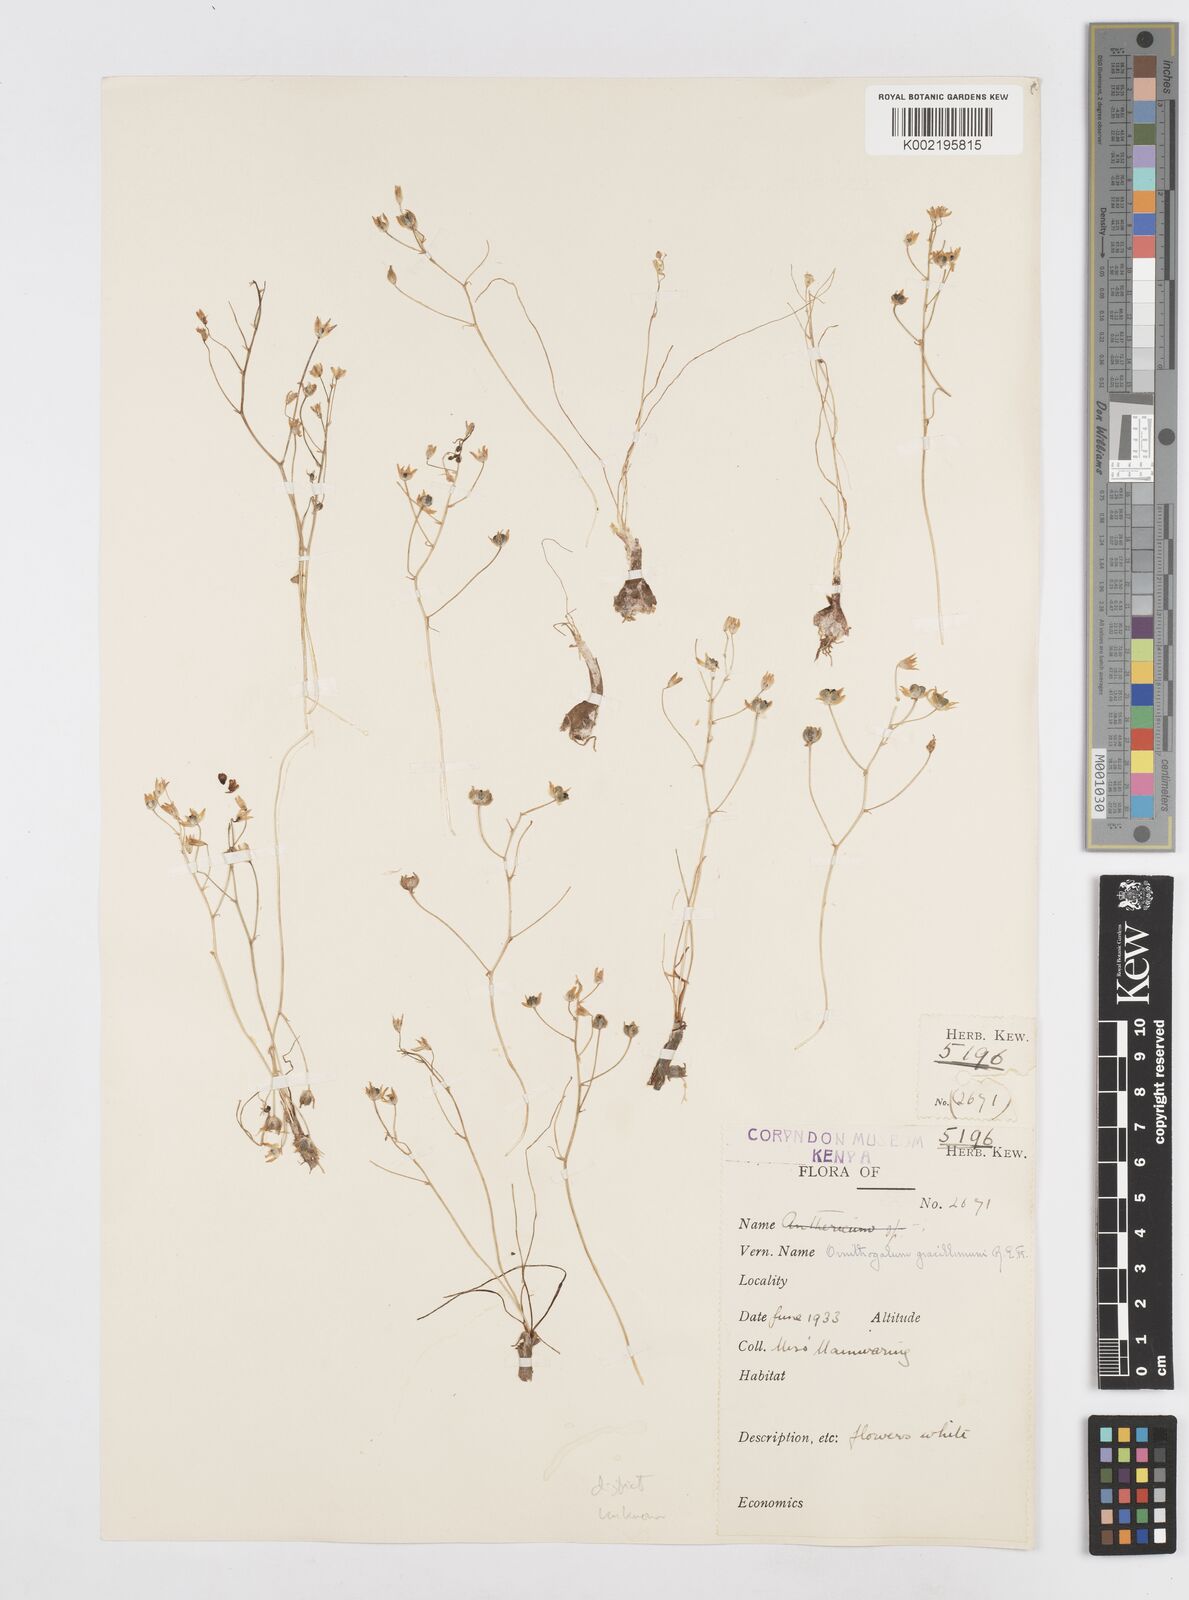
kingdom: Plantae
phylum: Tracheophyta
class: Liliopsida
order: Asparagales
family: Asparagaceae
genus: Ornithogalum
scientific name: Ornithogalum gracillimum
